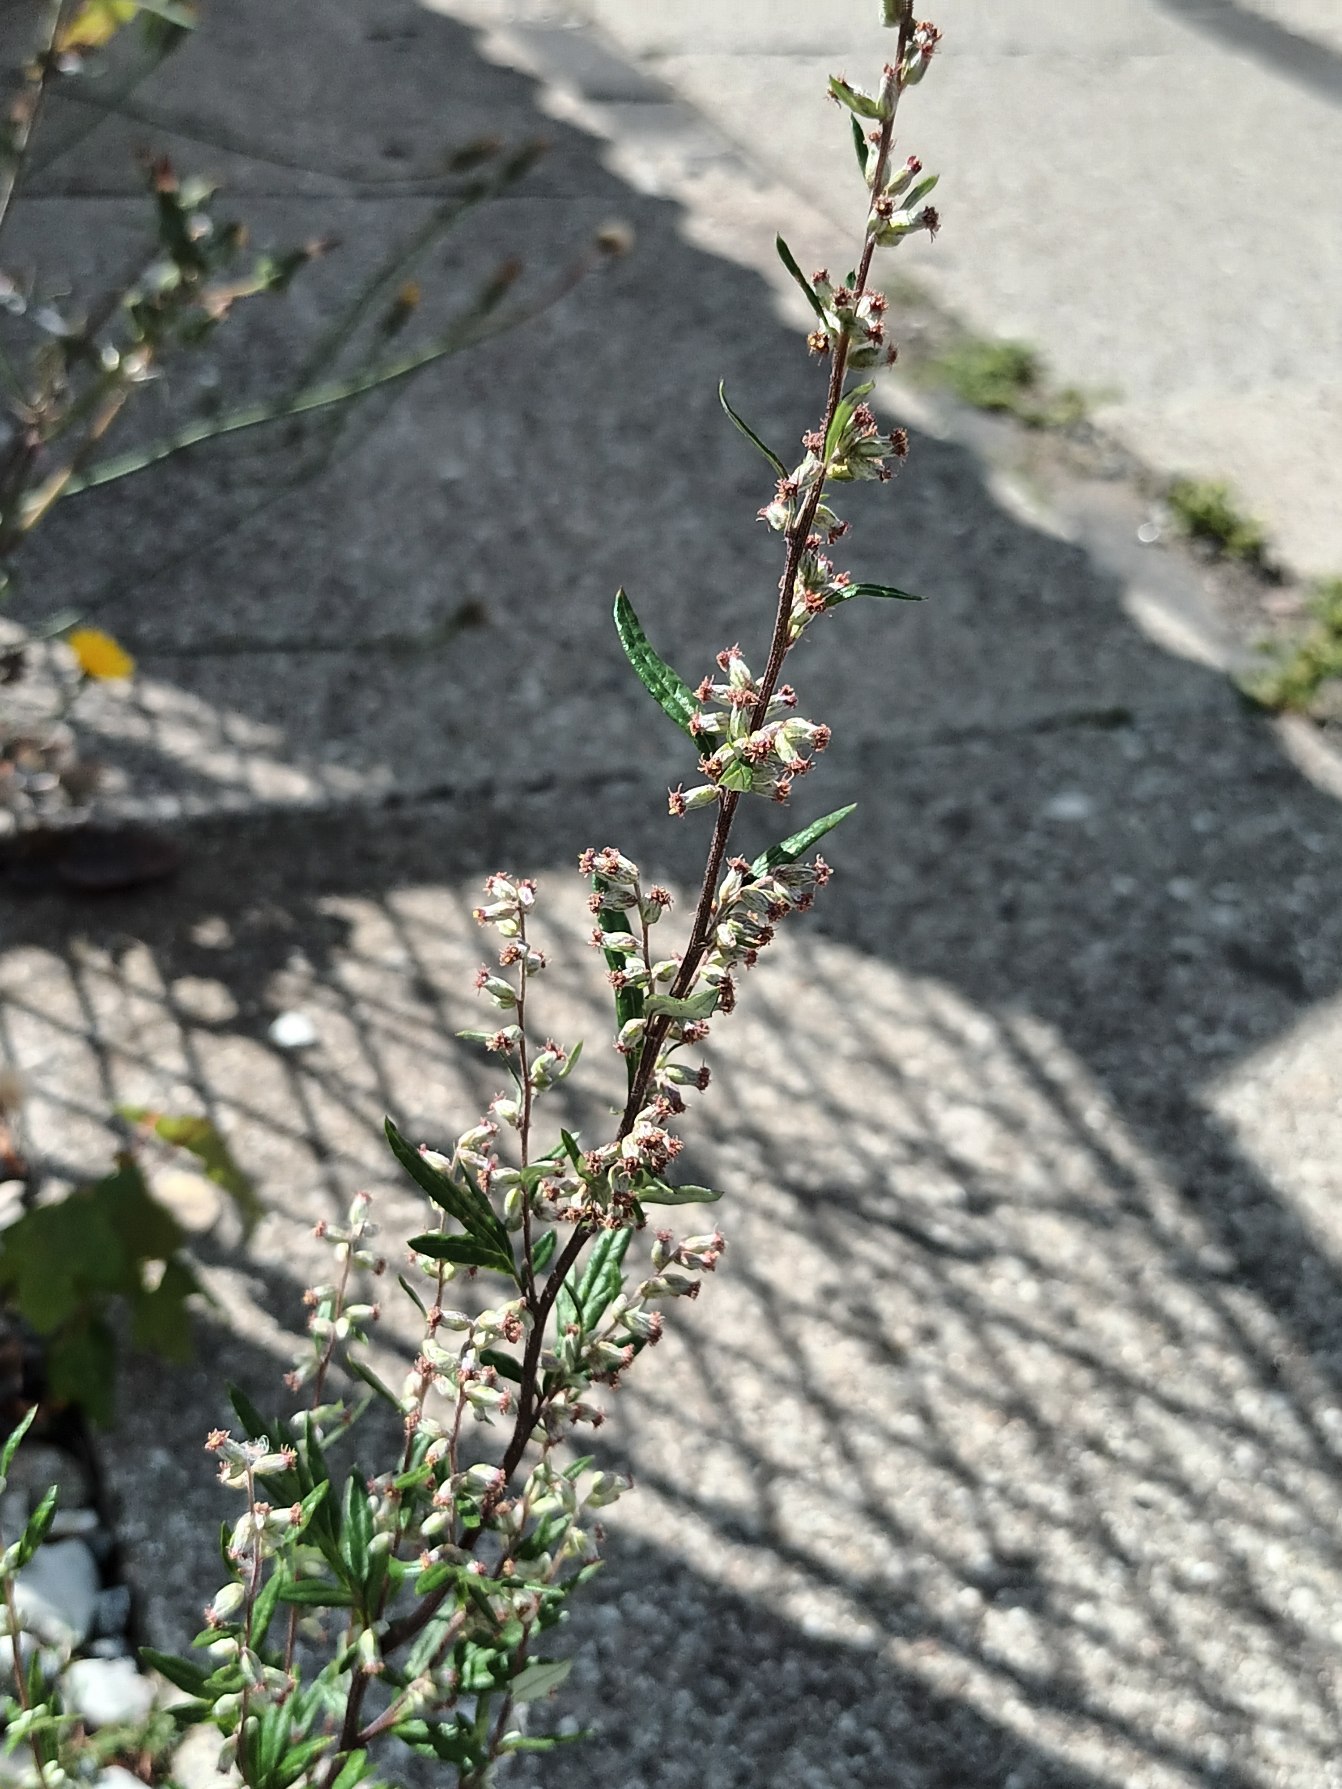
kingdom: Plantae
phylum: Tracheophyta
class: Magnoliopsida
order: Asterales
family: Asteraceae
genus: Artemisia
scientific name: Artemisia vulgaris
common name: Grå-bynke
